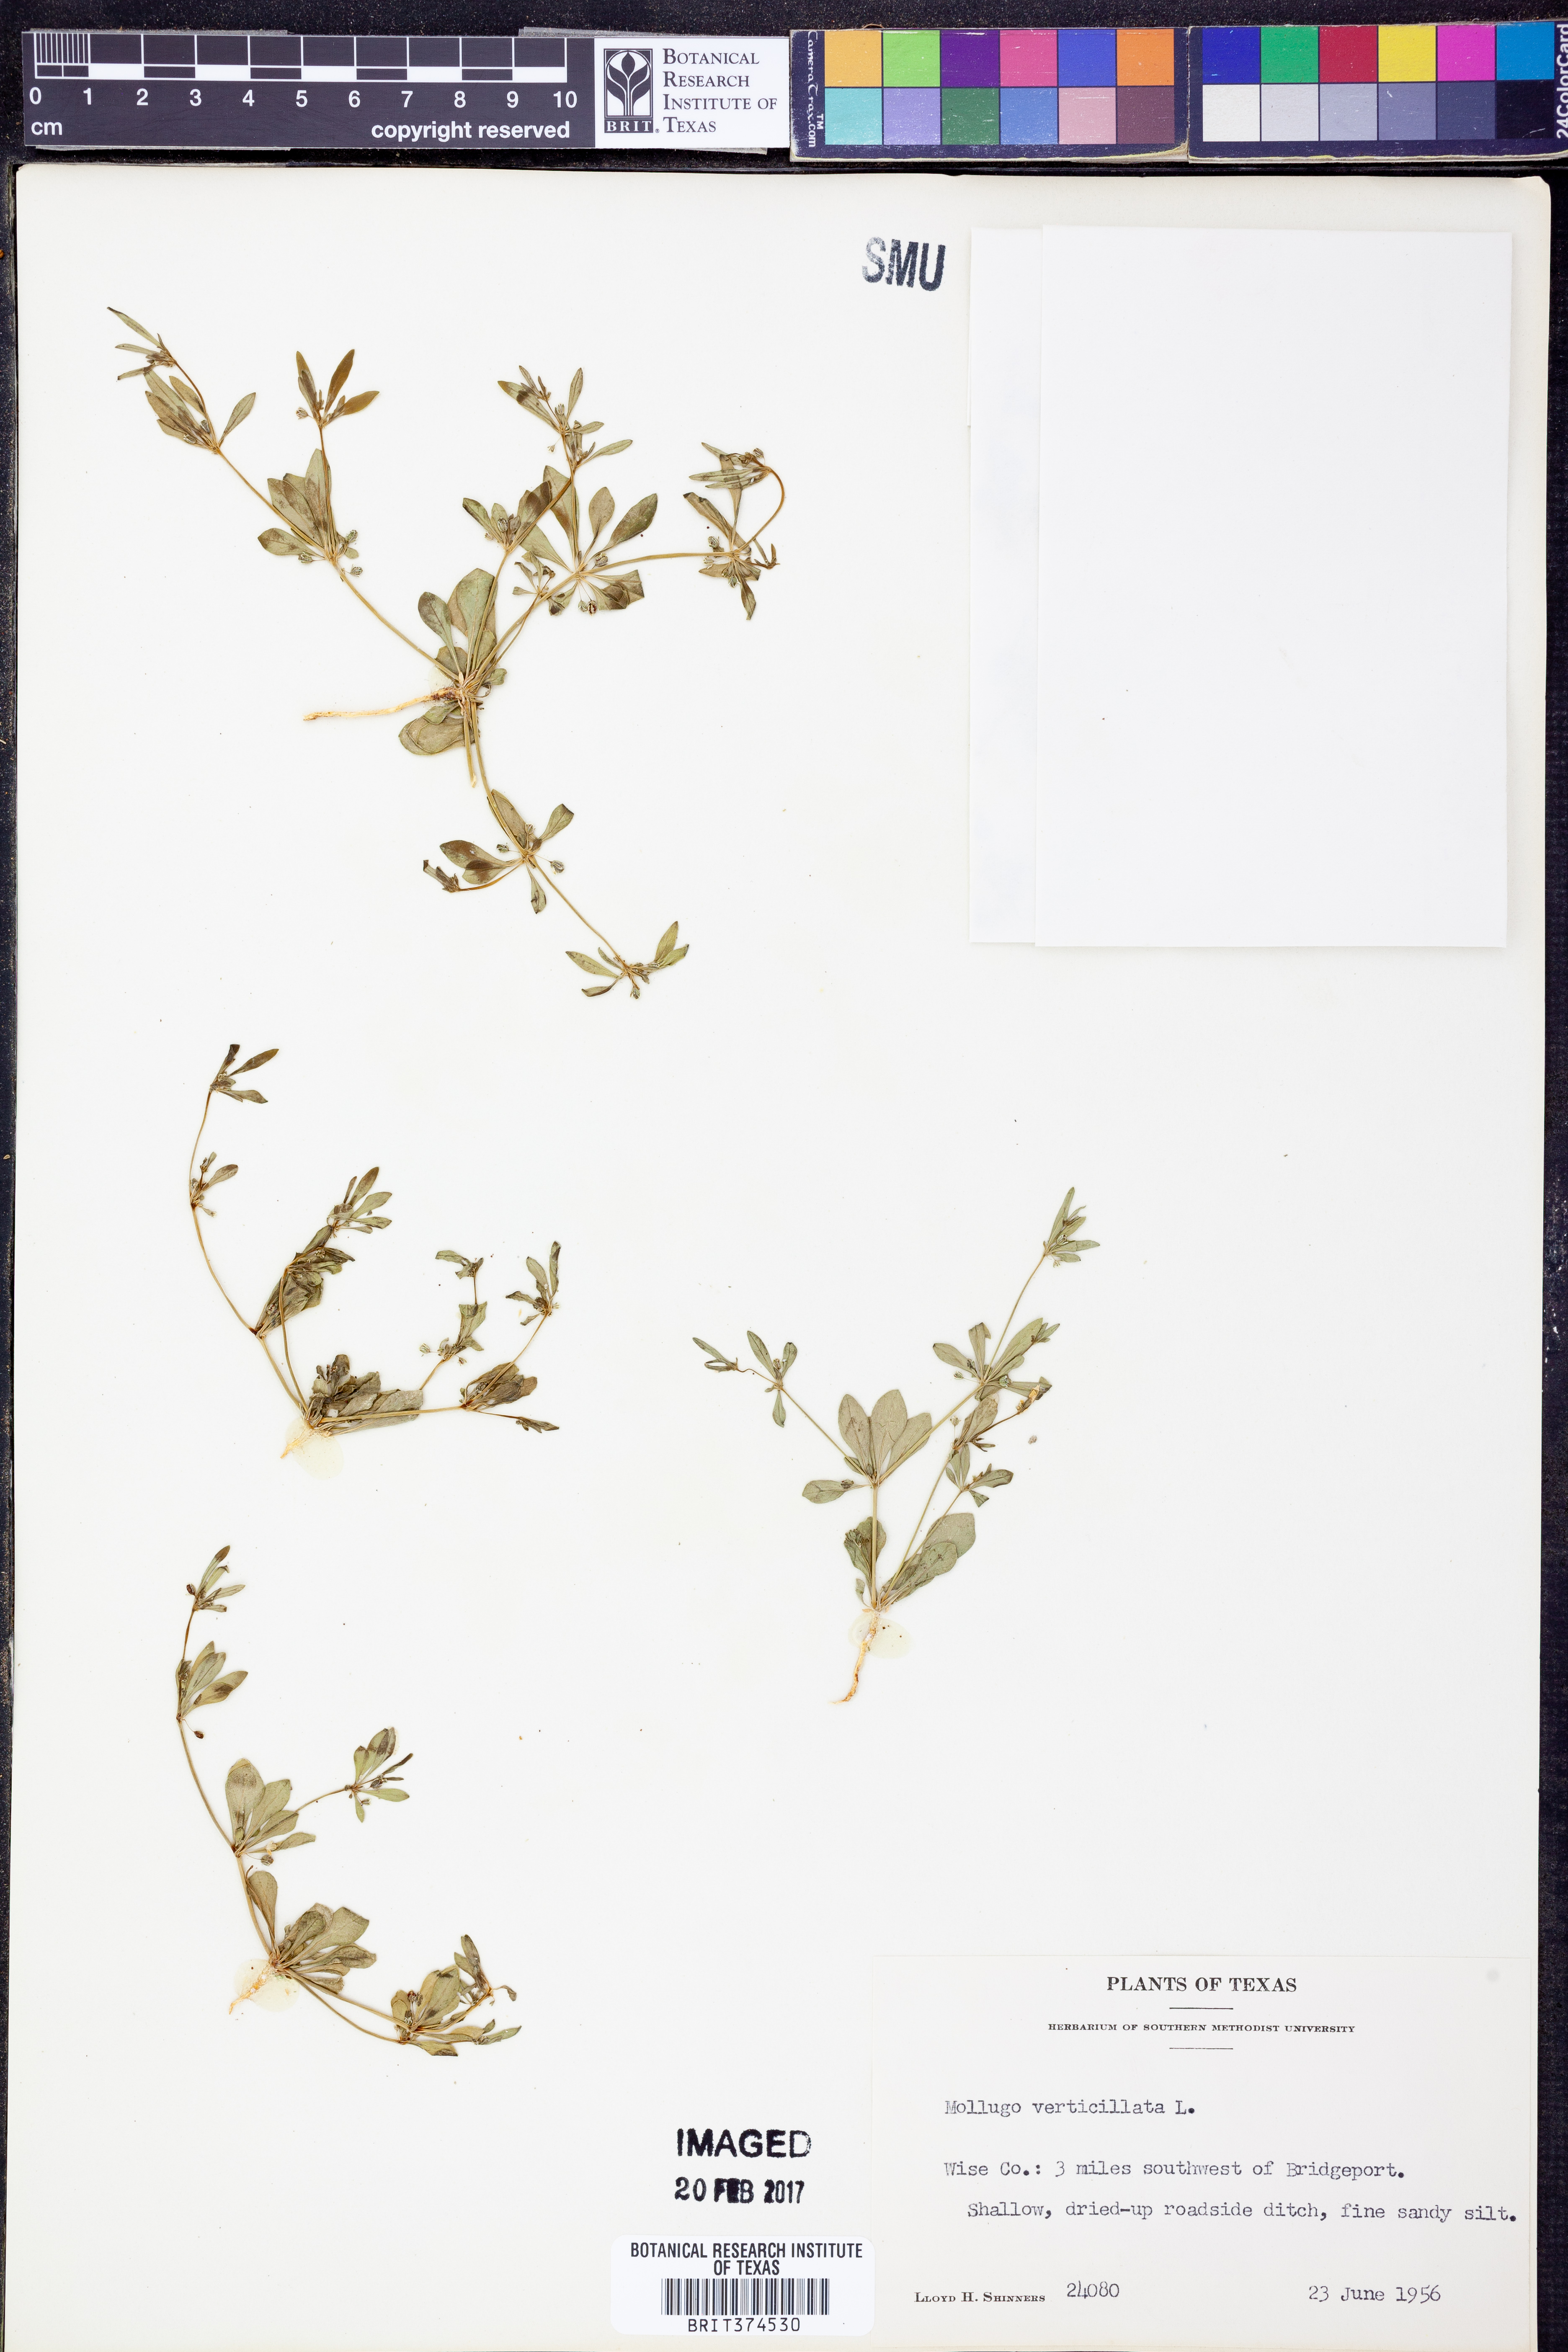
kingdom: Plantae
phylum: Tracheophyta
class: Magnoliopsida
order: Caryophyllales
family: Molluginaceae
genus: Mollugo
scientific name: Mollugo verticillata
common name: Green carpetweed
